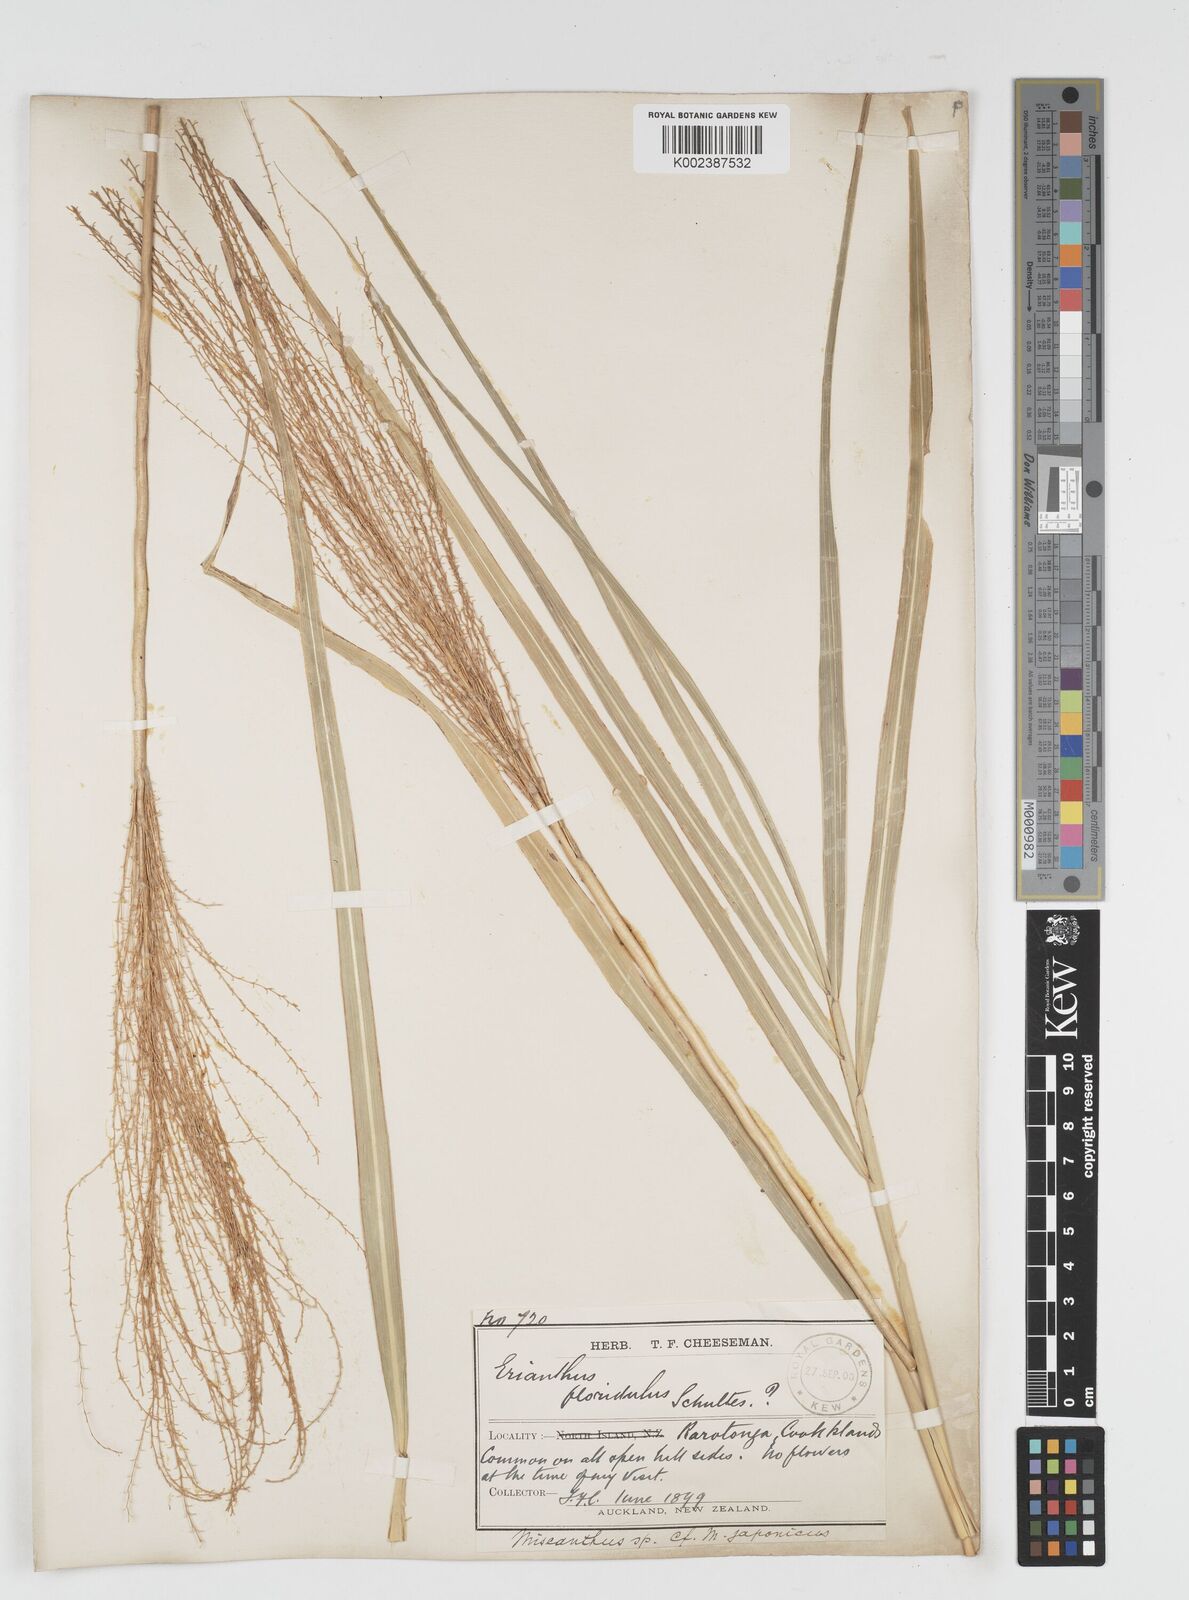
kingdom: Plantae
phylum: Tracheophyta
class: Liliopsida
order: Poales
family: Poaceae
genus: Miscanthus
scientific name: Miscanthus floridulus
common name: Pacific island silvergrass
